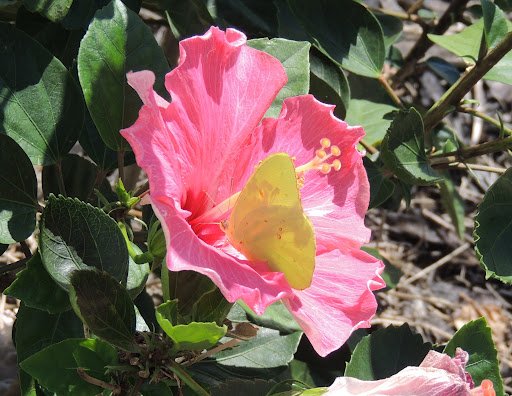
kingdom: Animalia
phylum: Arthropoda
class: Insecta
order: Lepidoptera
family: Pieridae
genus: Phoebis
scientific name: Phoebis sennae
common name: Cloudless Sulphur
